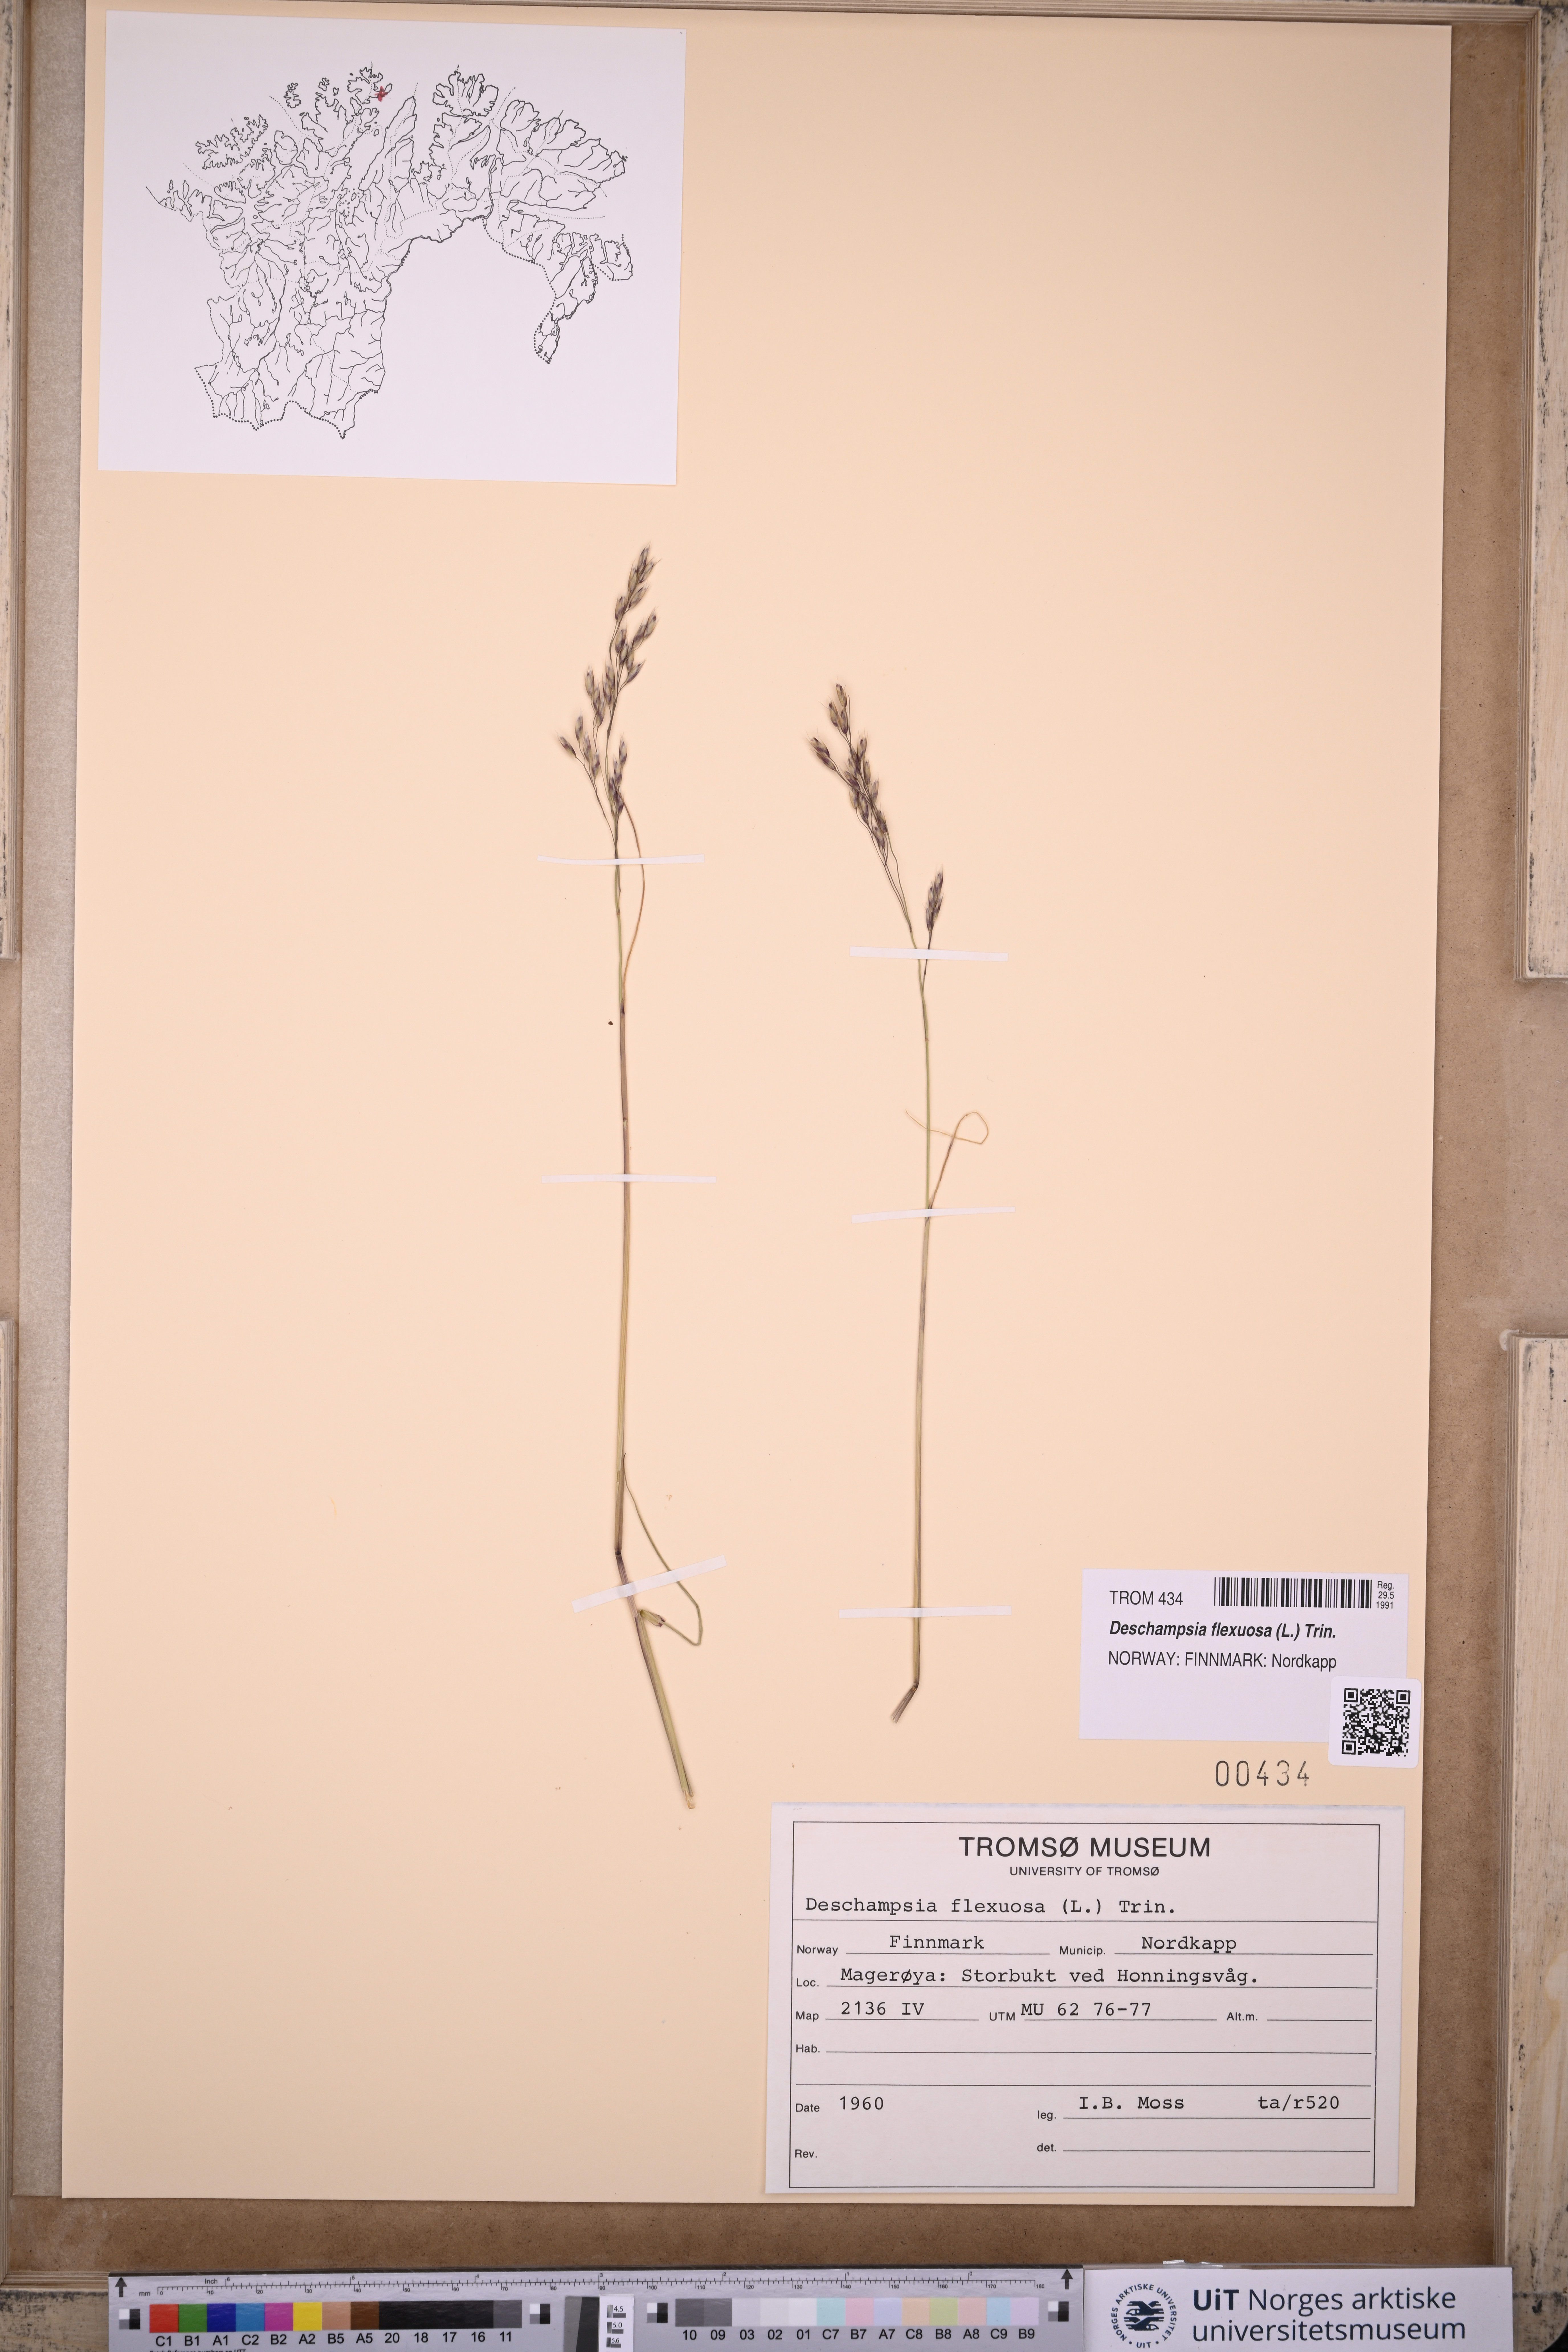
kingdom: Plantae
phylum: Tracheophyta
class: Liliopsida
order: Poales
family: Poaceae
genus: Avenella
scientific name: Avenella flexuosa
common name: Wavy hairgrass
